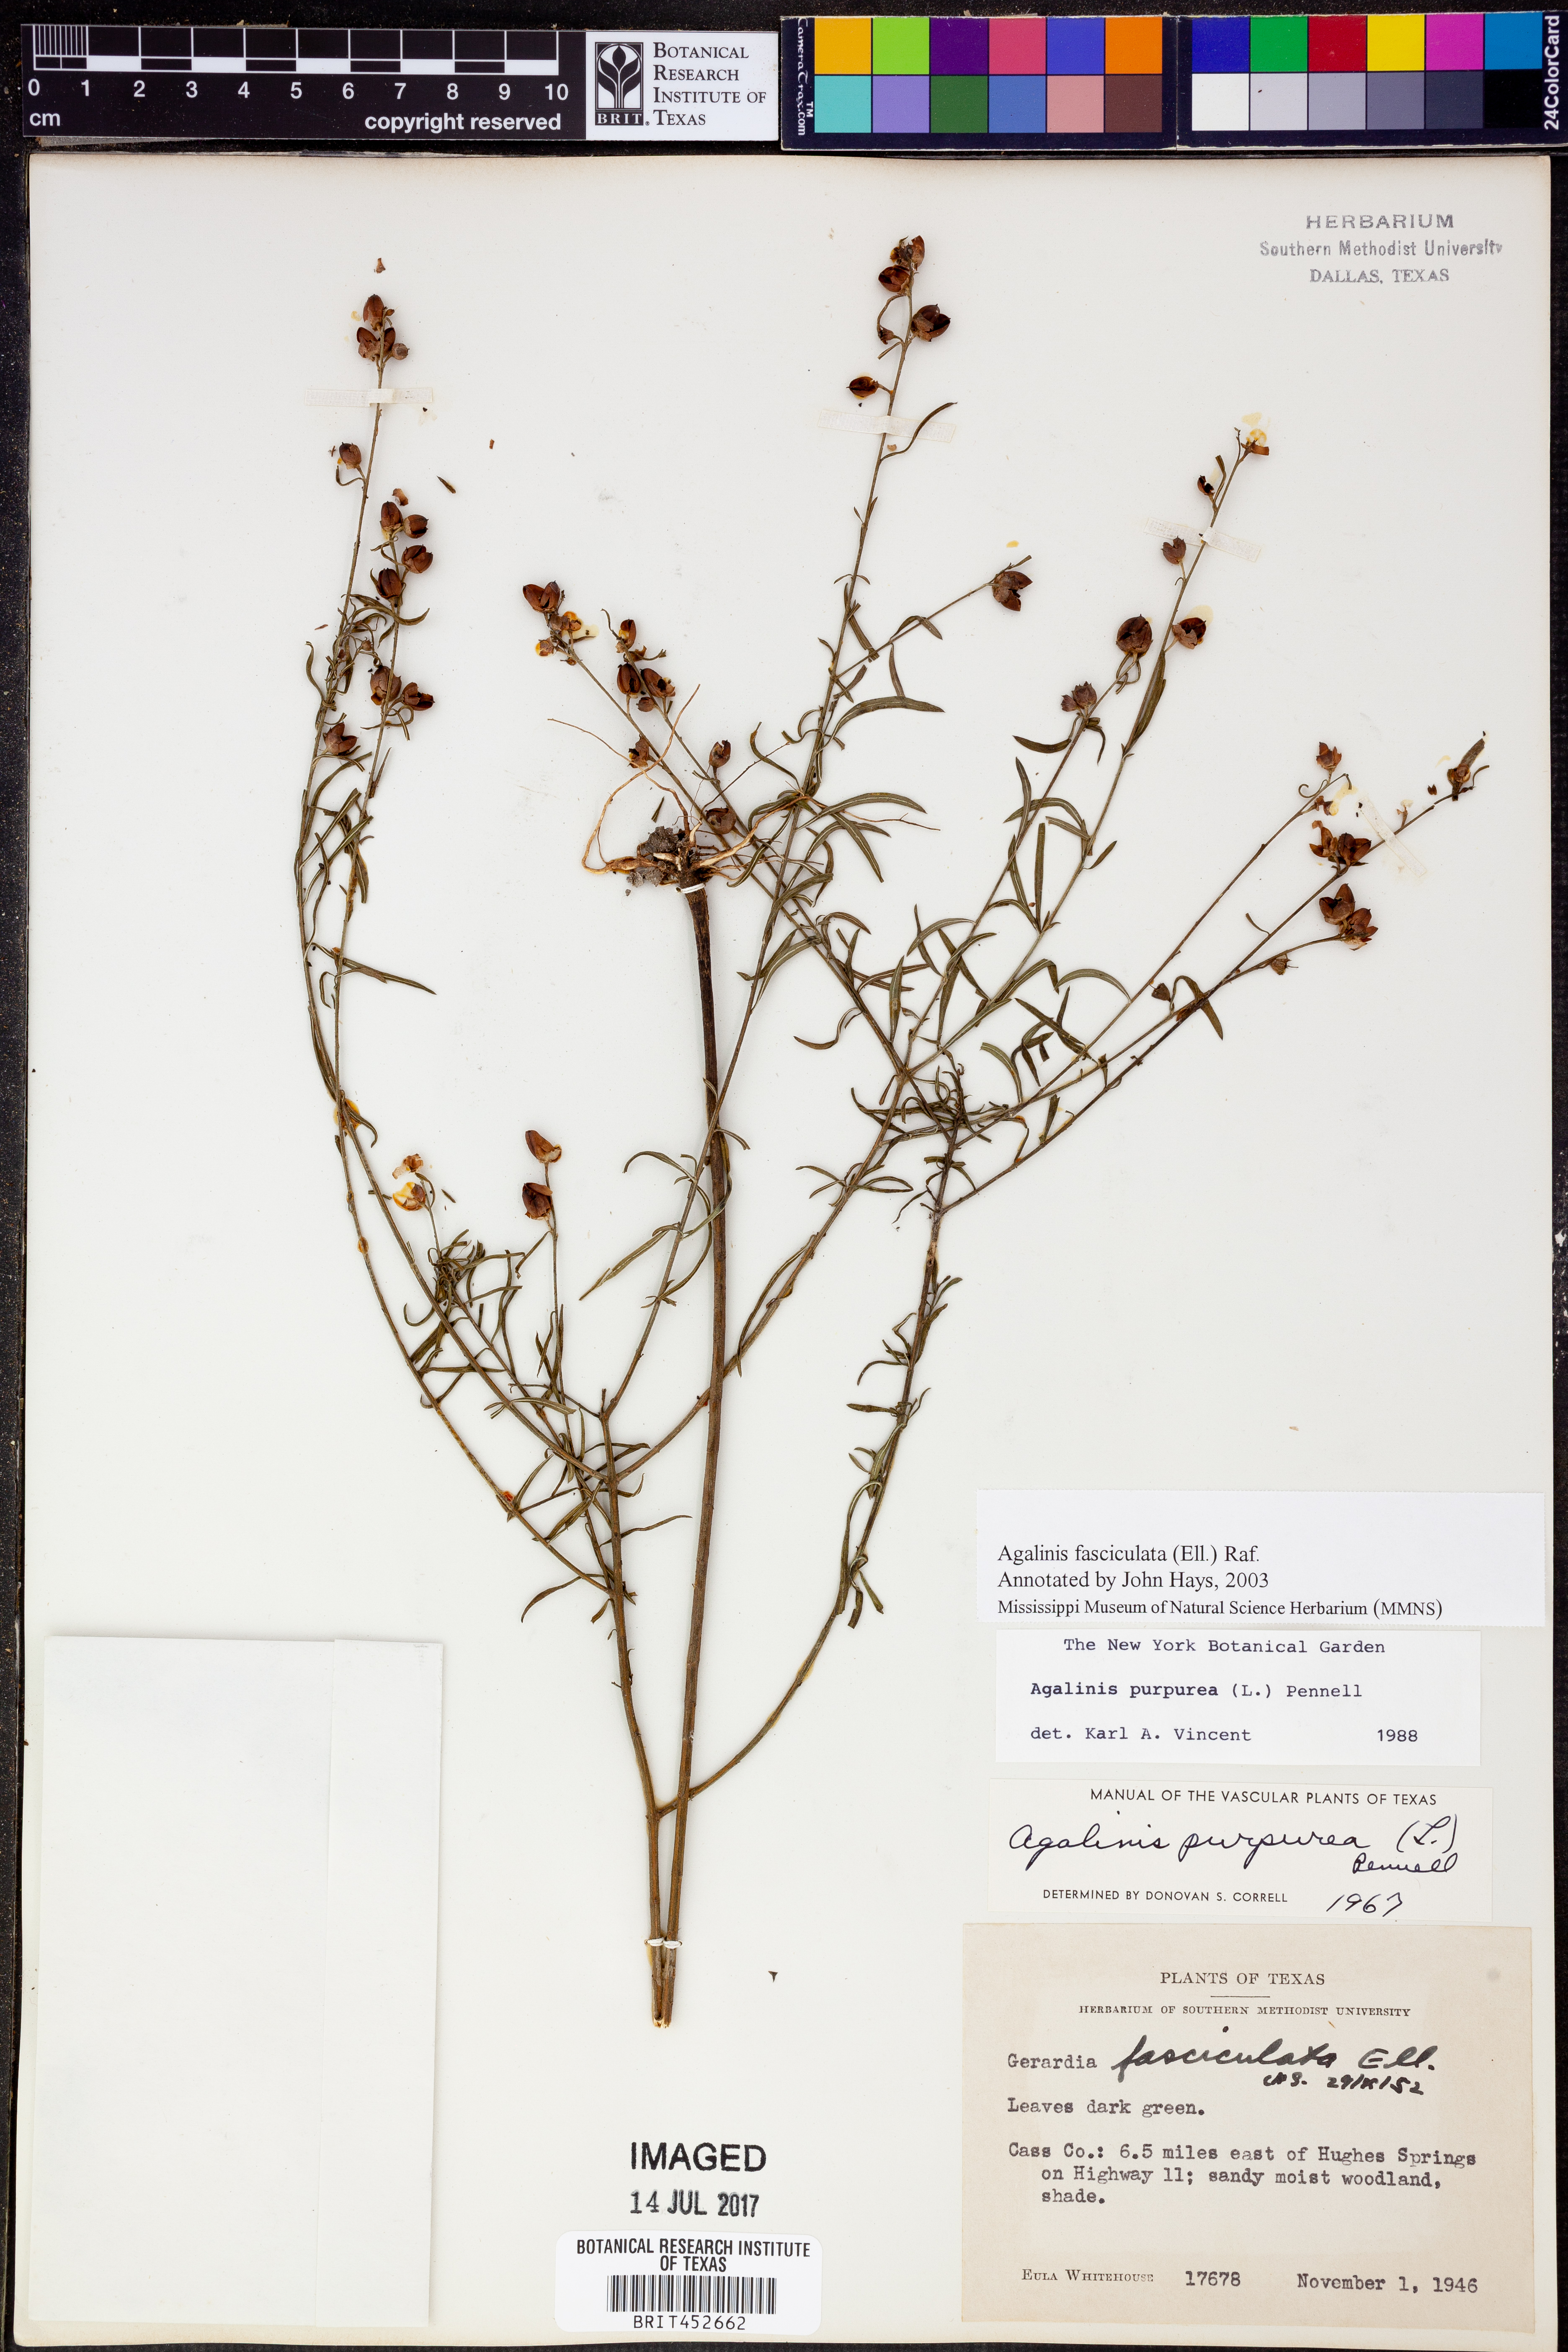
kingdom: Plantae
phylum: Tracheophyta
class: Magnoliopsida
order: Lamiales
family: Orobanchaceae
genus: Agalinis
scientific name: Agalinis fasciculata
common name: Beach false foxglove
